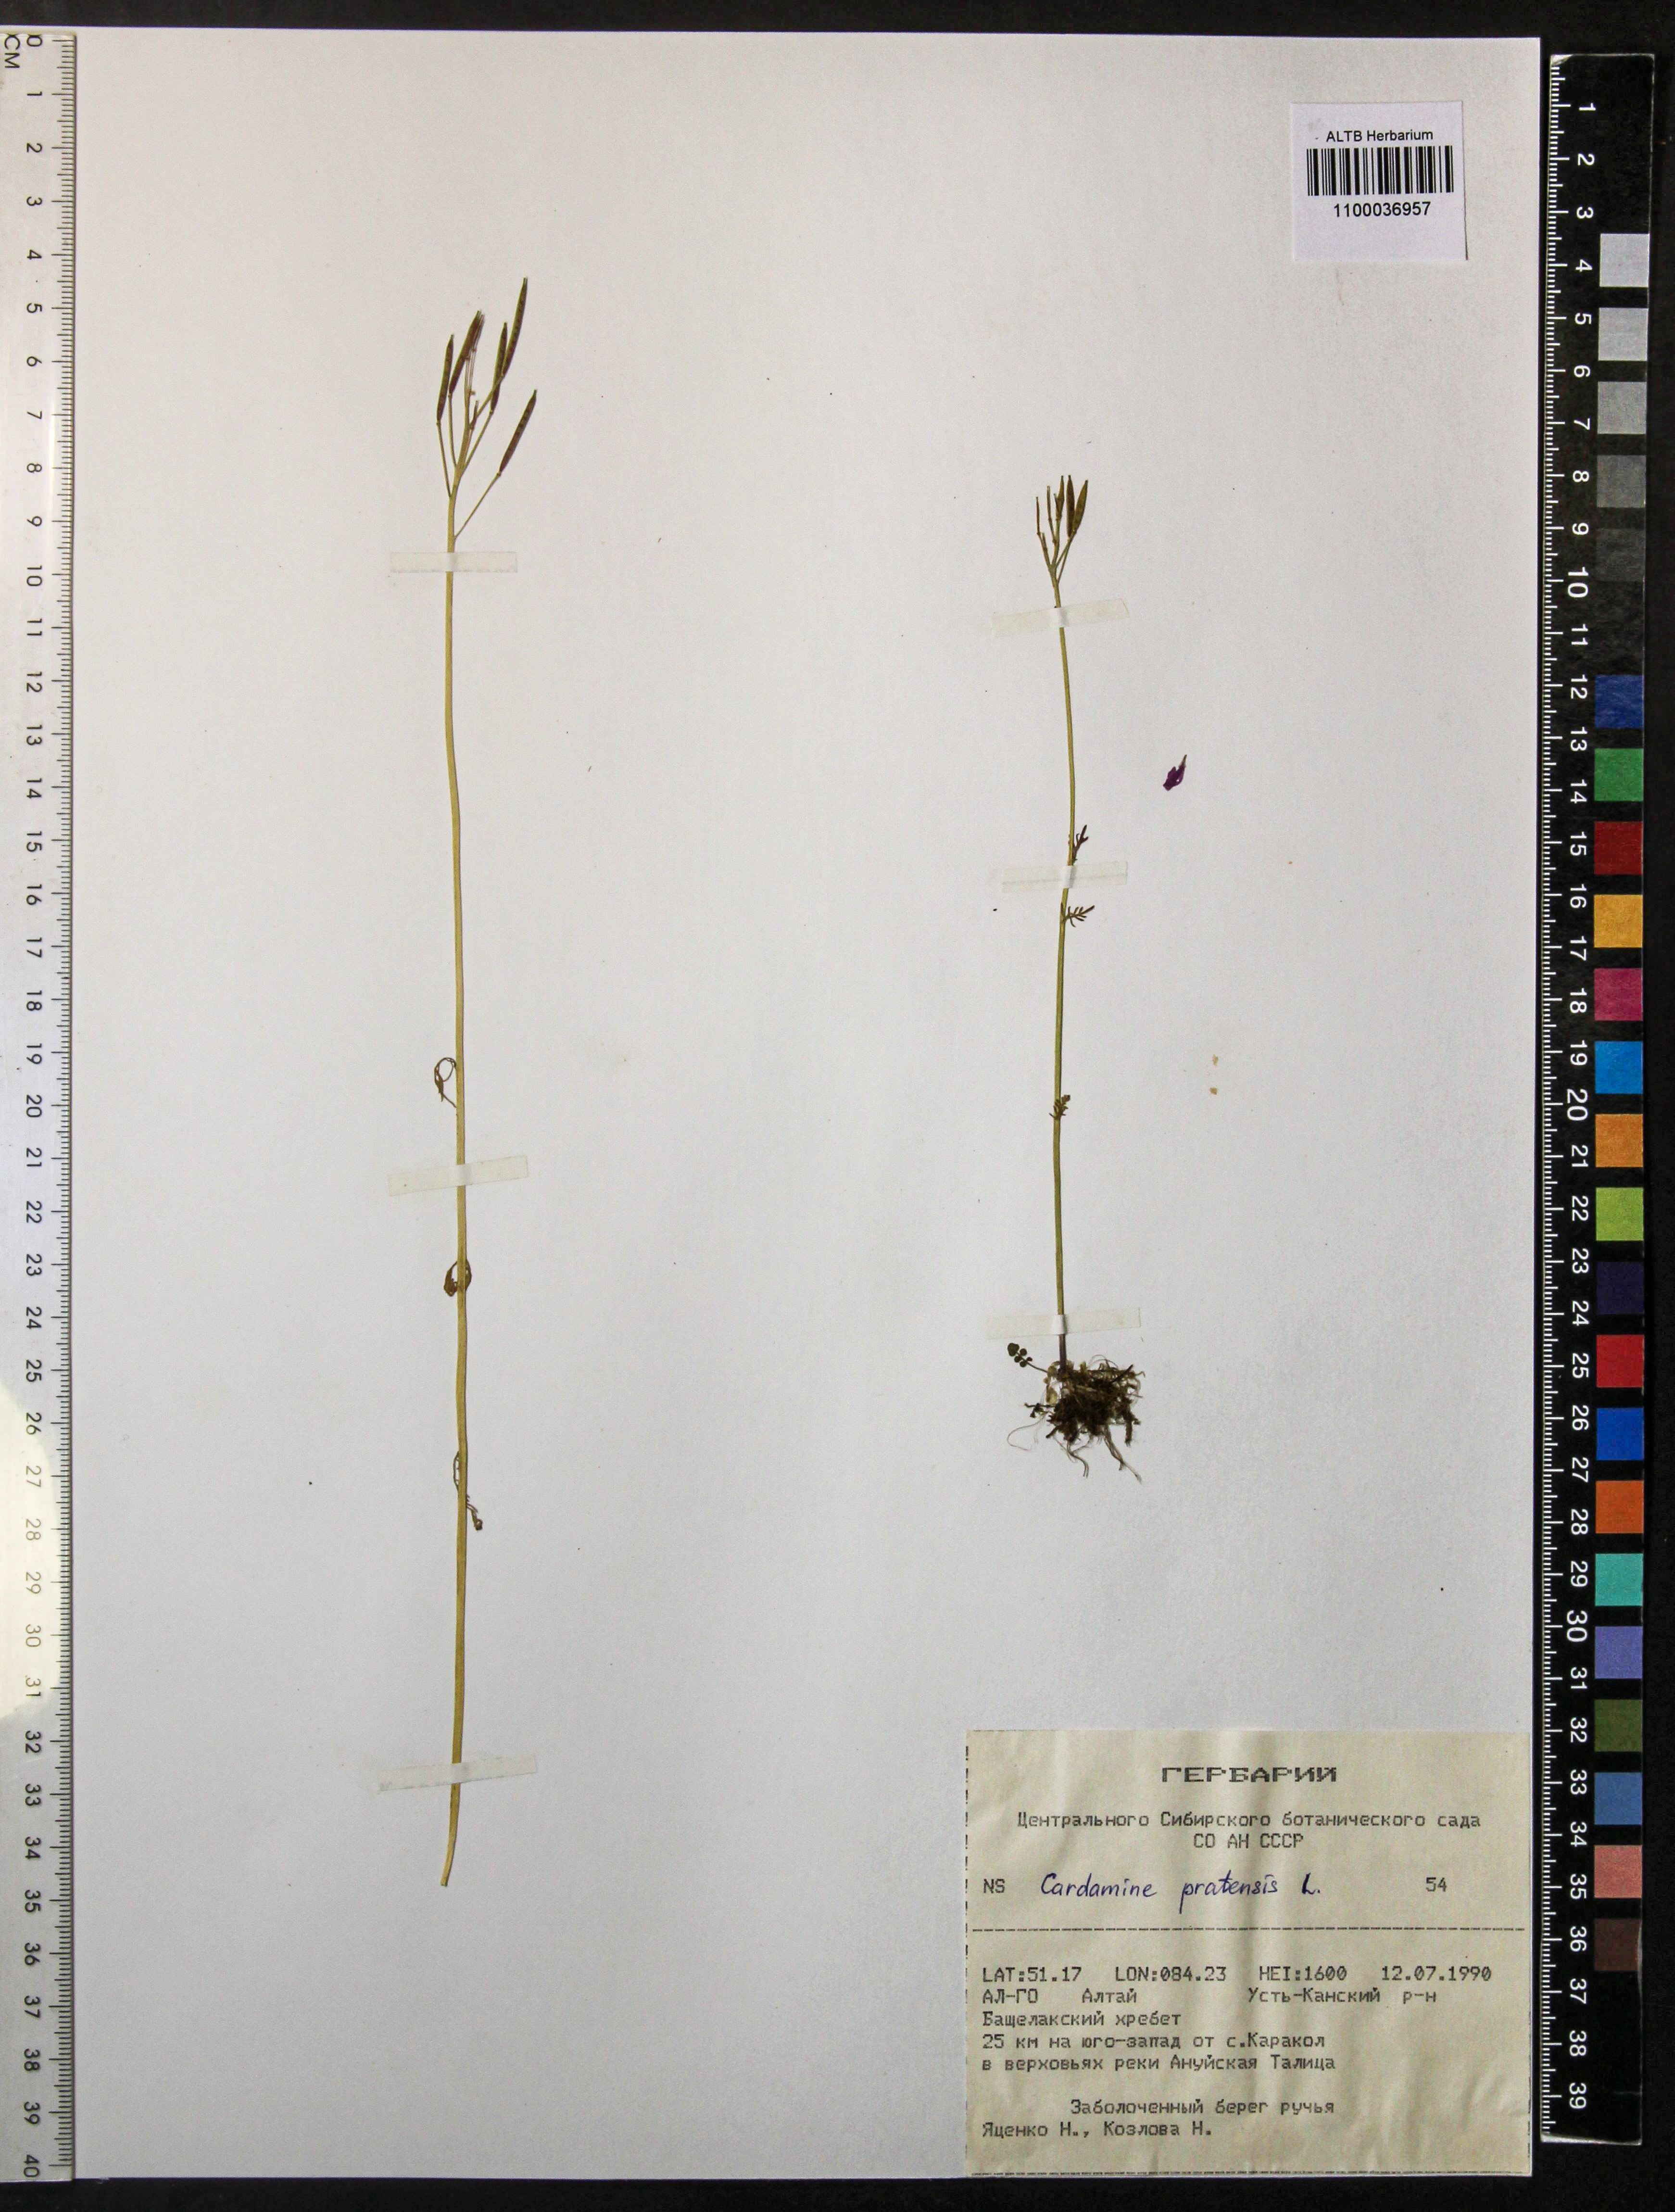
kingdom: Plantae
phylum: Tracheophyta
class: Magnoliopsida
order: Brassicales
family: Brassicaceae
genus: Cardamine
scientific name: Cardamine pratensis
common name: Cuckoo flower
